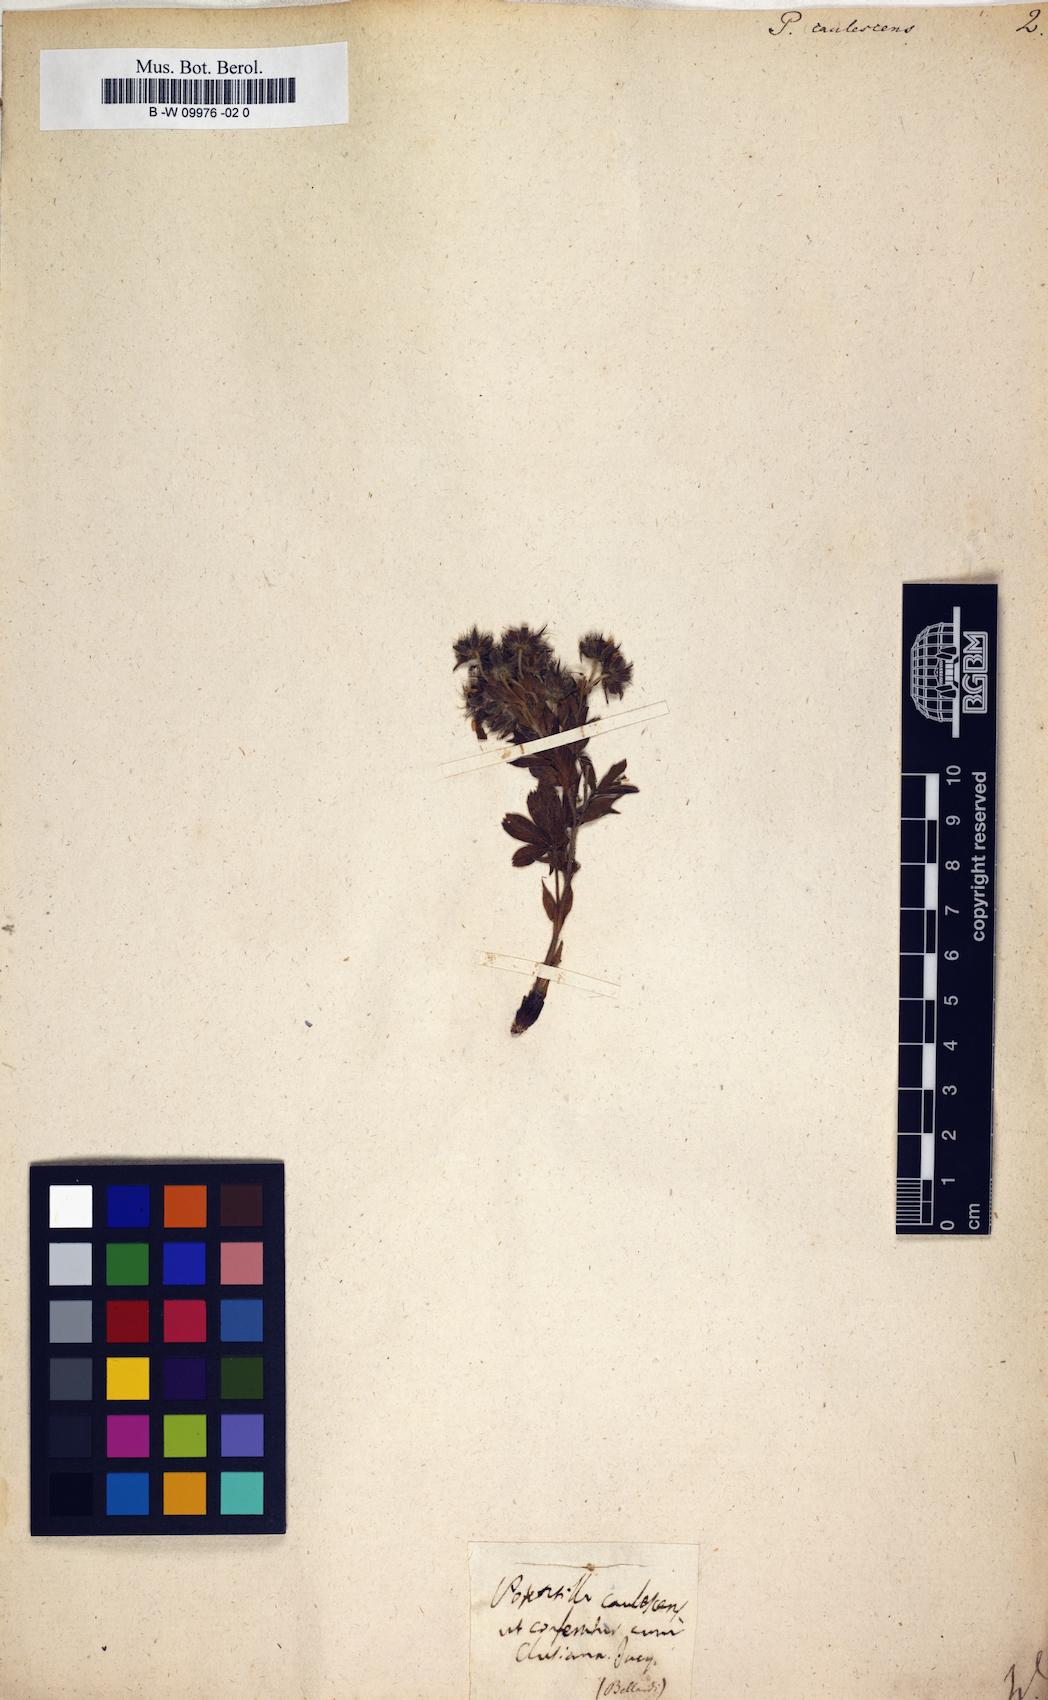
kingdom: Plantae
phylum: Tracheophyta
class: Magnoliopsida
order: Rosales
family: Rosaceae
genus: Potentilla
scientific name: Potentilla caulescens
